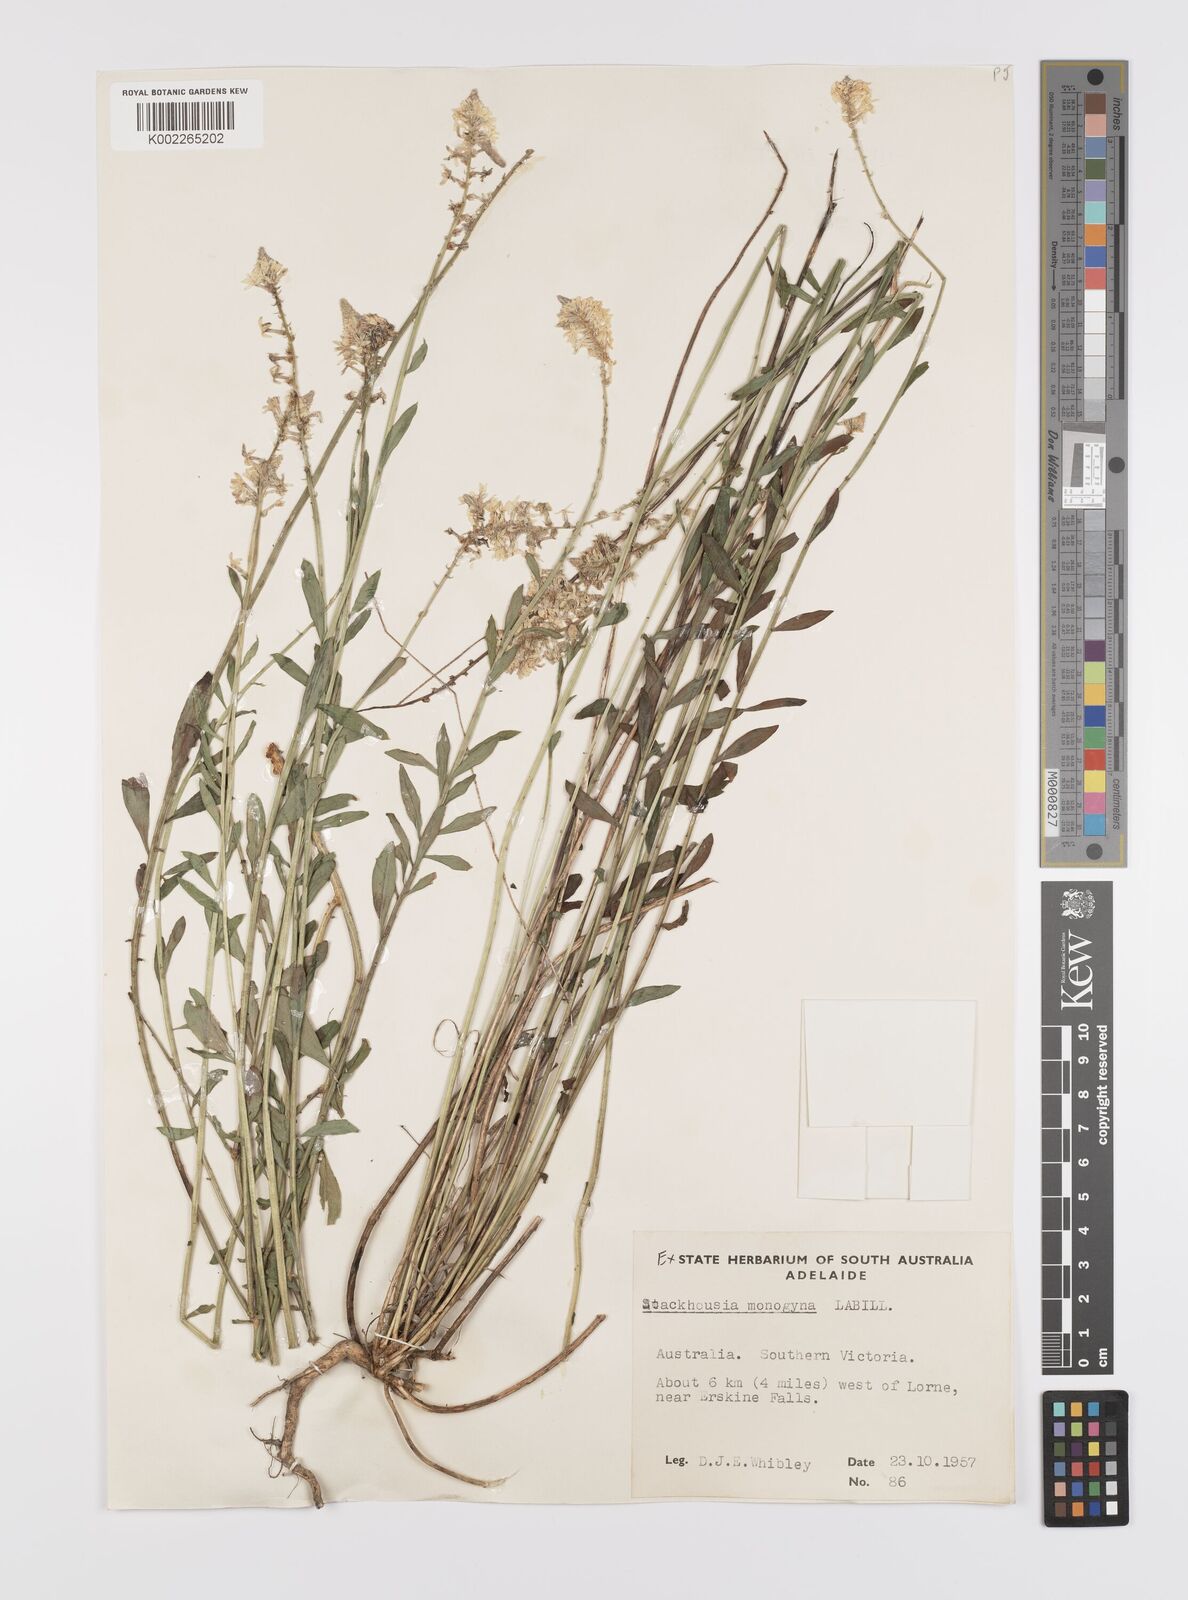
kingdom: Plantae
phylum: Tracheophyta
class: Magnoliopsida
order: Celastrales
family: Celastraceae
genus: Stackhousia
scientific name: Stackhousia monogyna
